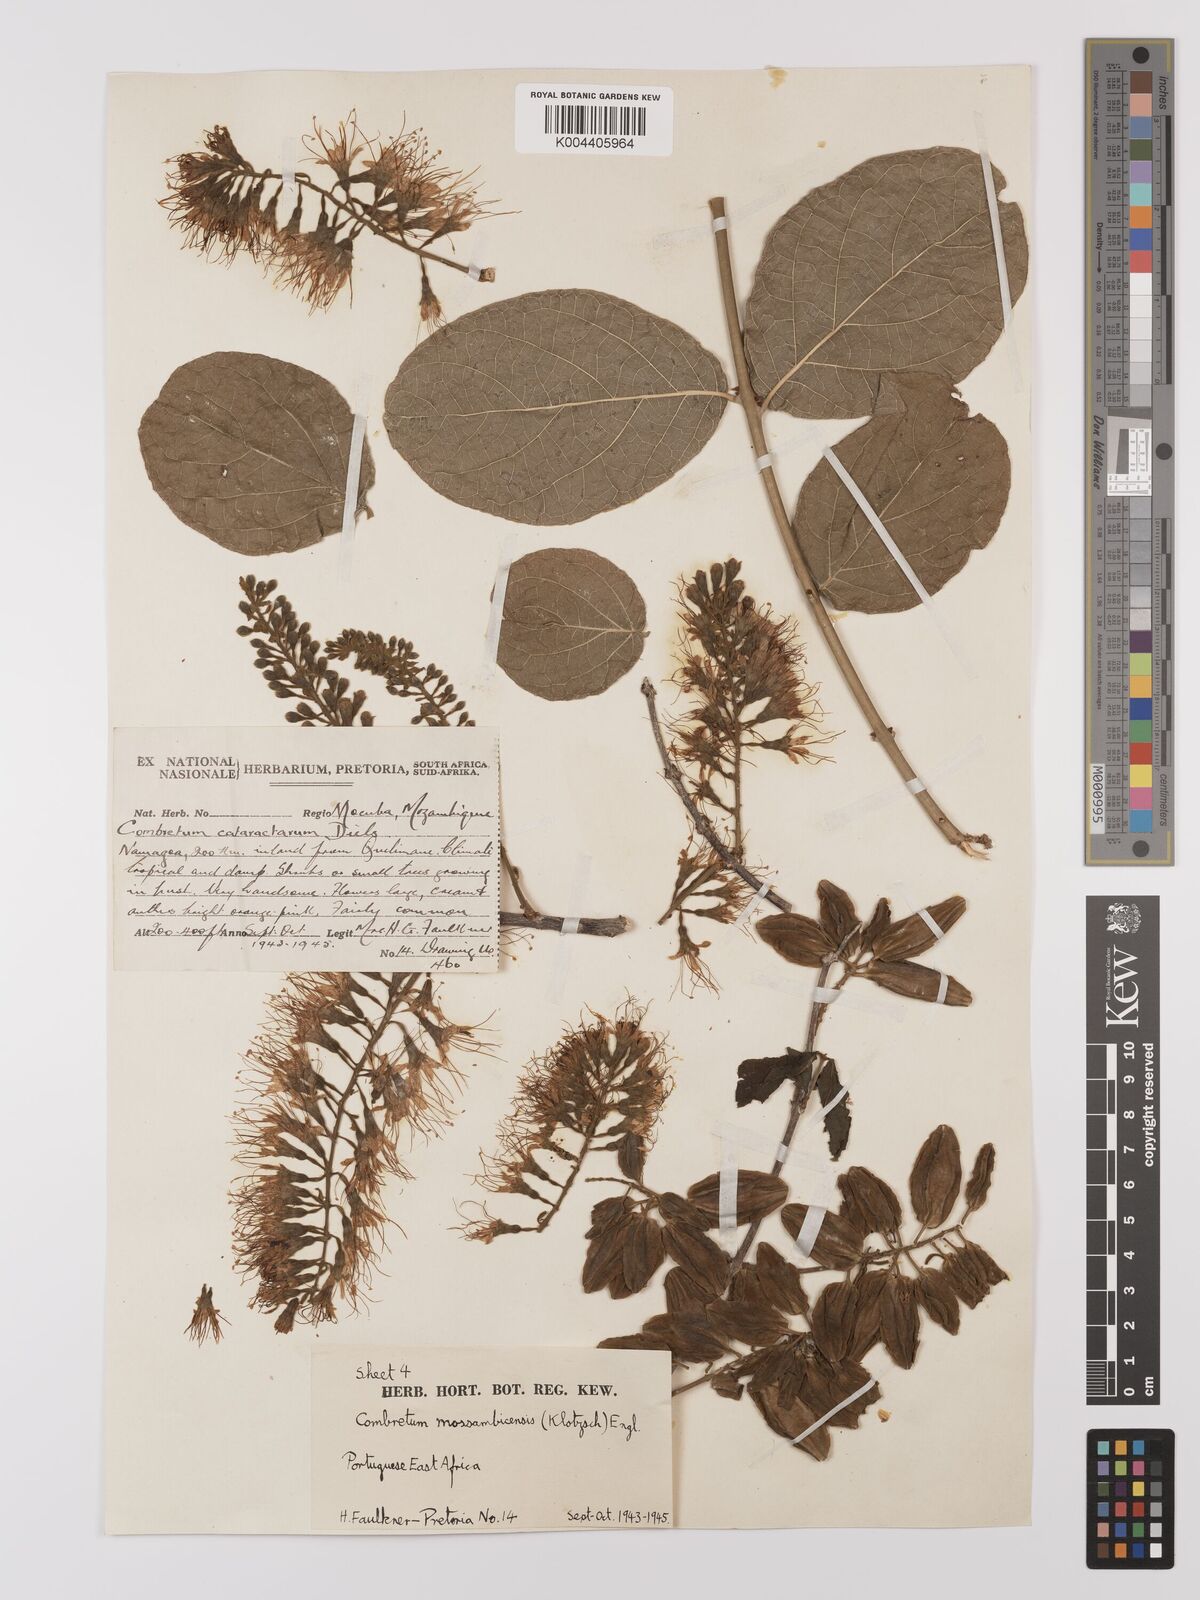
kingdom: Plantae
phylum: Tracheophyta
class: Magnoliopsida
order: Myrtales
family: Combretaceae
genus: Combretum
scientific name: Combretum mossambicense
